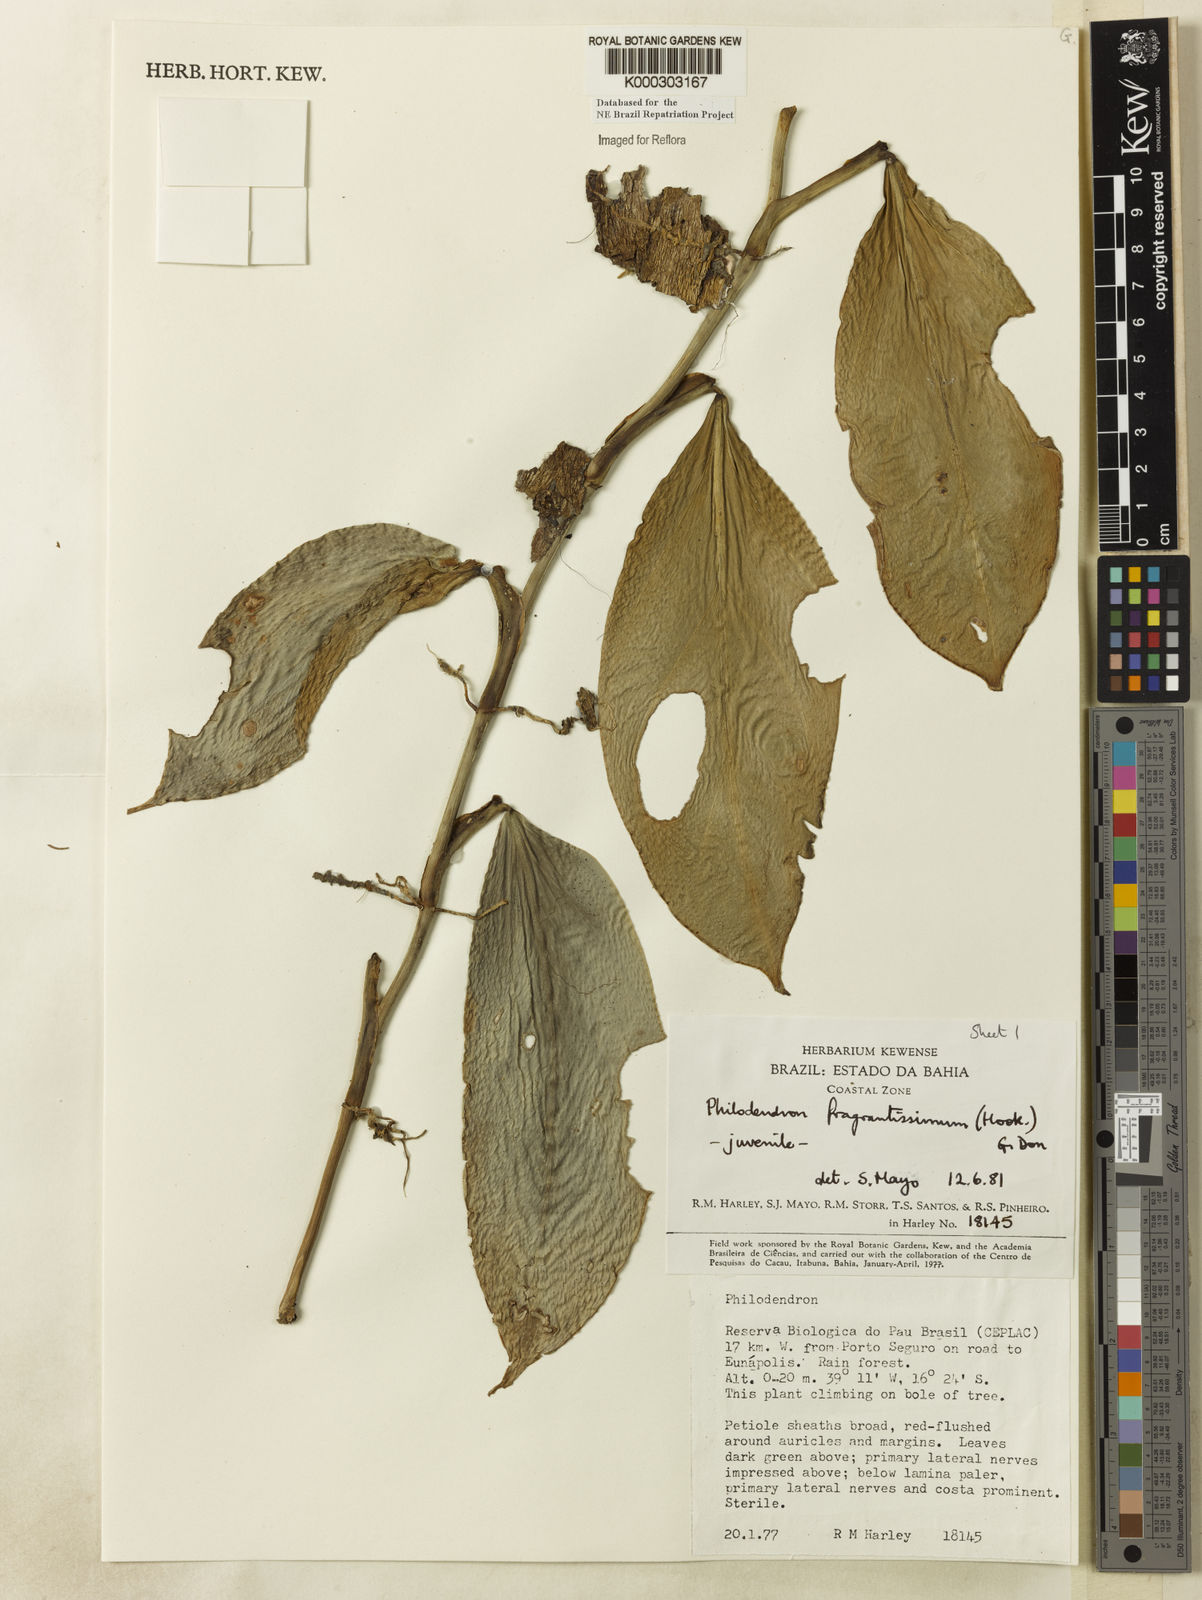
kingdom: Plantae
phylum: Tracheophyta
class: Liliopsida
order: Alismatales
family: Araceae
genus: Philodendron
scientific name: Philodendron fragrantissimum
